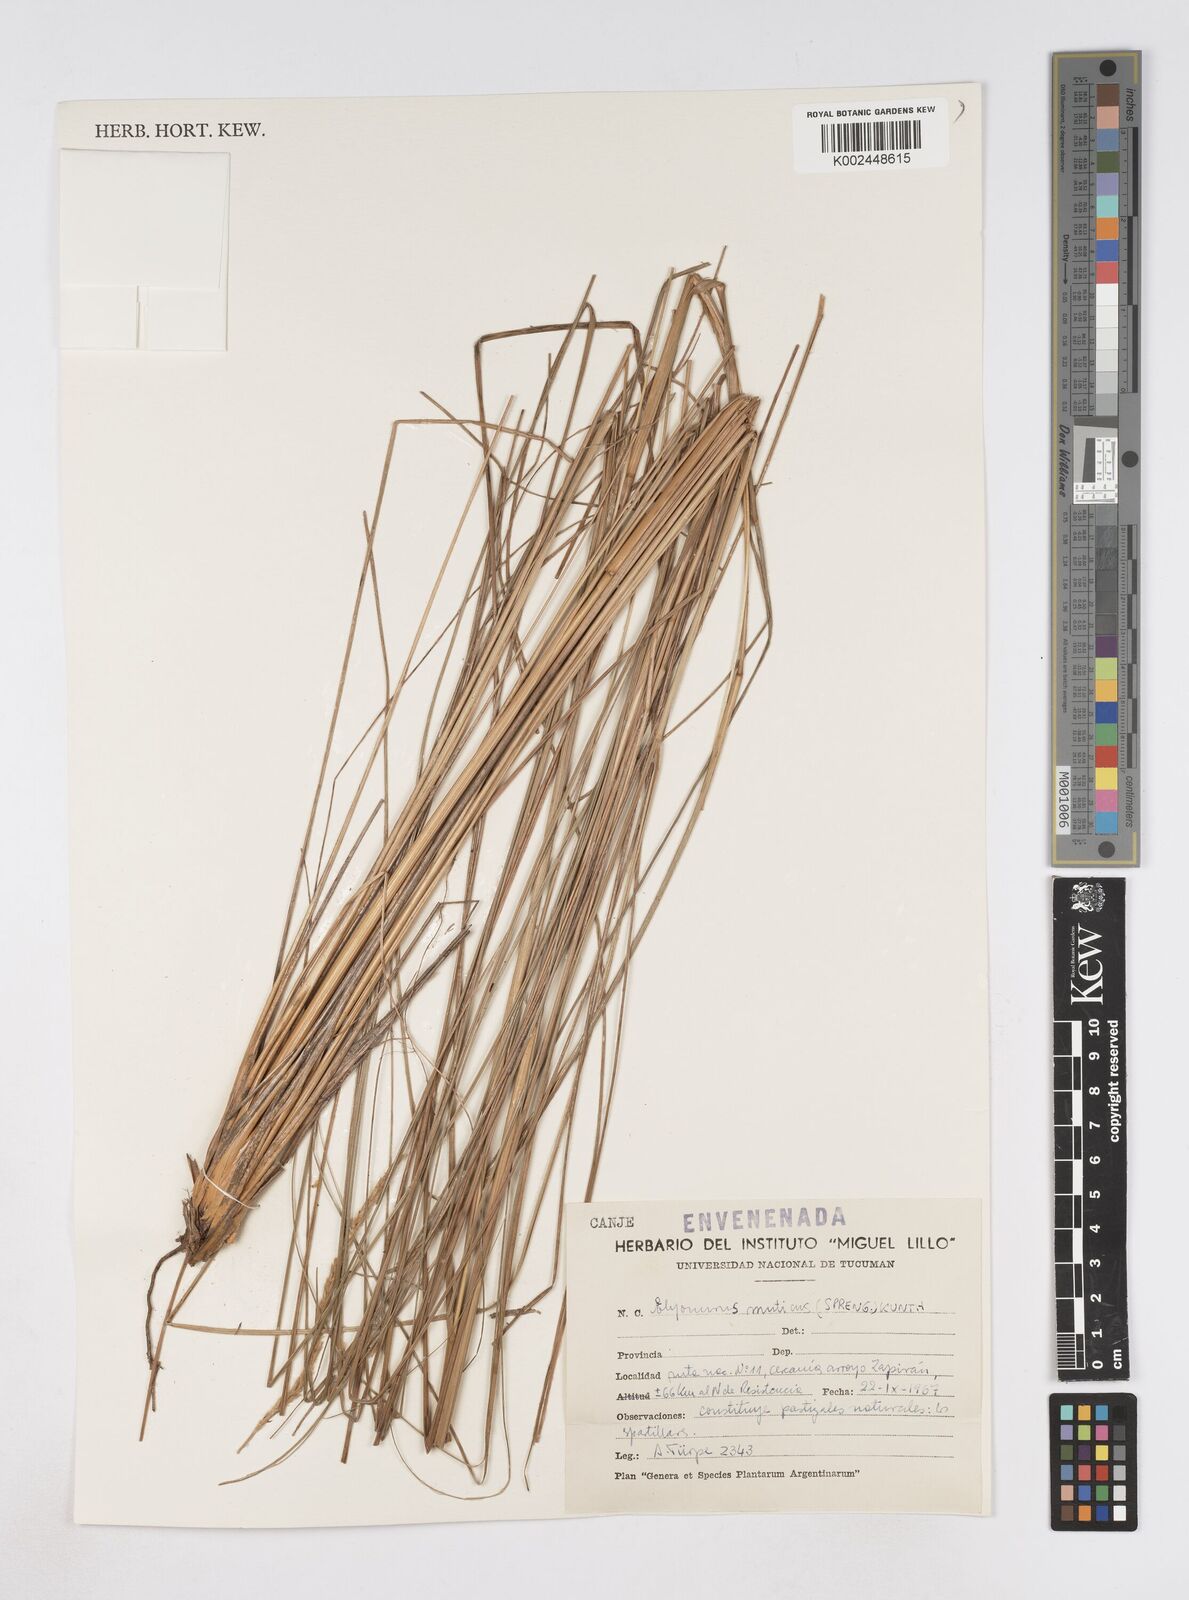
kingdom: Plantae
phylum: Tracheophyta
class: Liliopsida
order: Poales
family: Poaceae
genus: Elionurus
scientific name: Elionurus muticus
